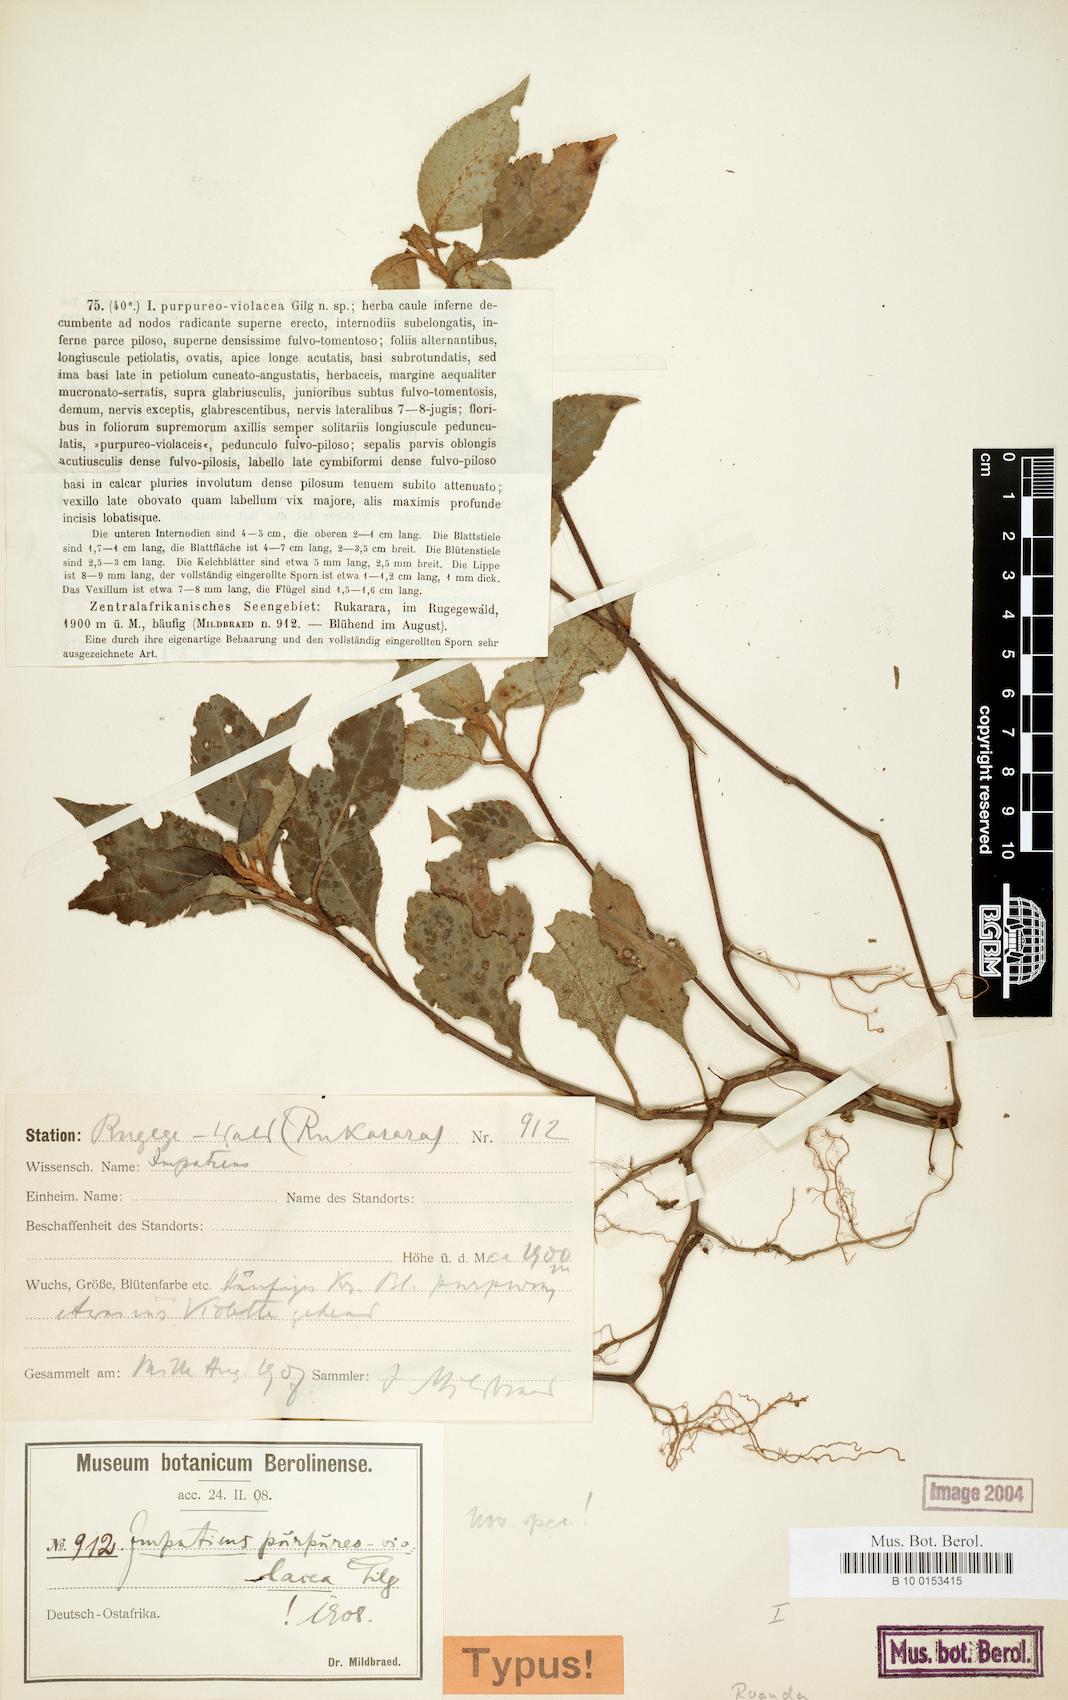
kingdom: Plantae
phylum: Tracheophyta
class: Magnoliopsida
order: Ericales
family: Balsaminaceae
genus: Impatiens
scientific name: Impatiens purpureoviolacea
